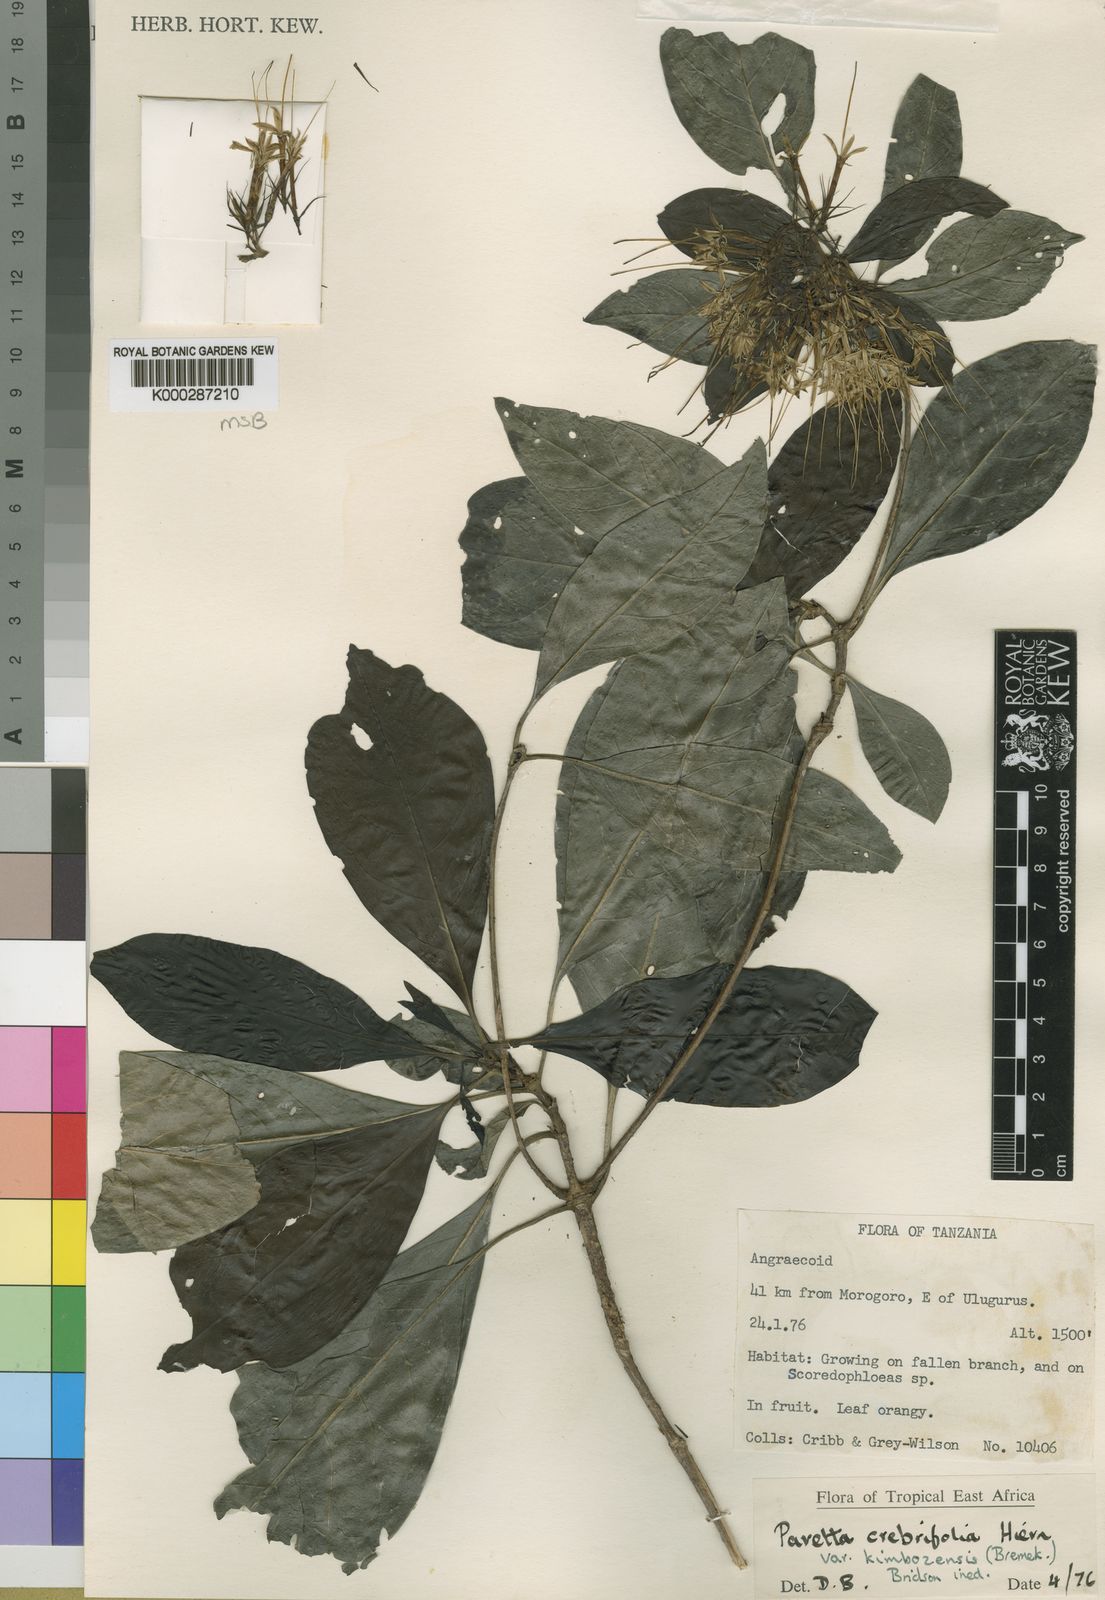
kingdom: Plantae
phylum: Tracheophyta
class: Magnoliopsida
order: Gentianales
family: Rubiaceae
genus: Pavetta
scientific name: Pavetta crebrifolia
